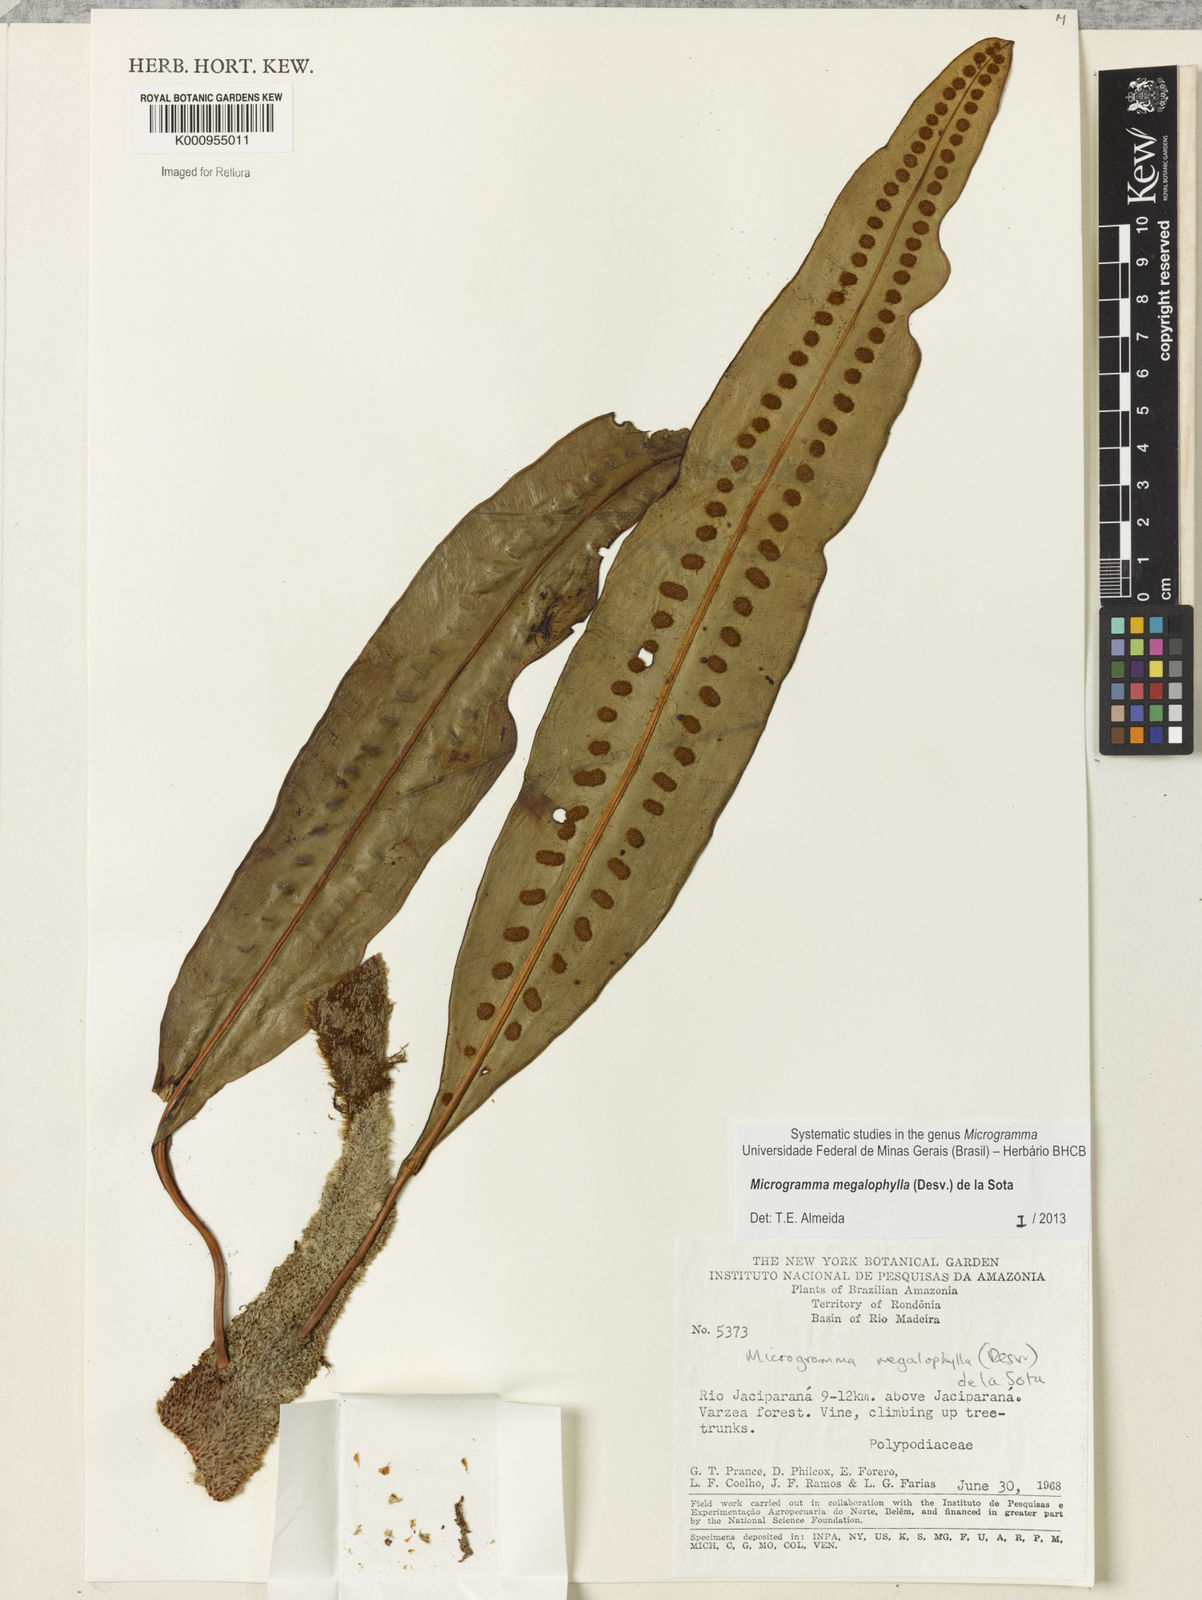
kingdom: Plantae
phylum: Tracheophyta
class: Polypodiopsida
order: Polypodiales
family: Polypodiaceae
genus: Microgramma
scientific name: Microgramma megalophylla
